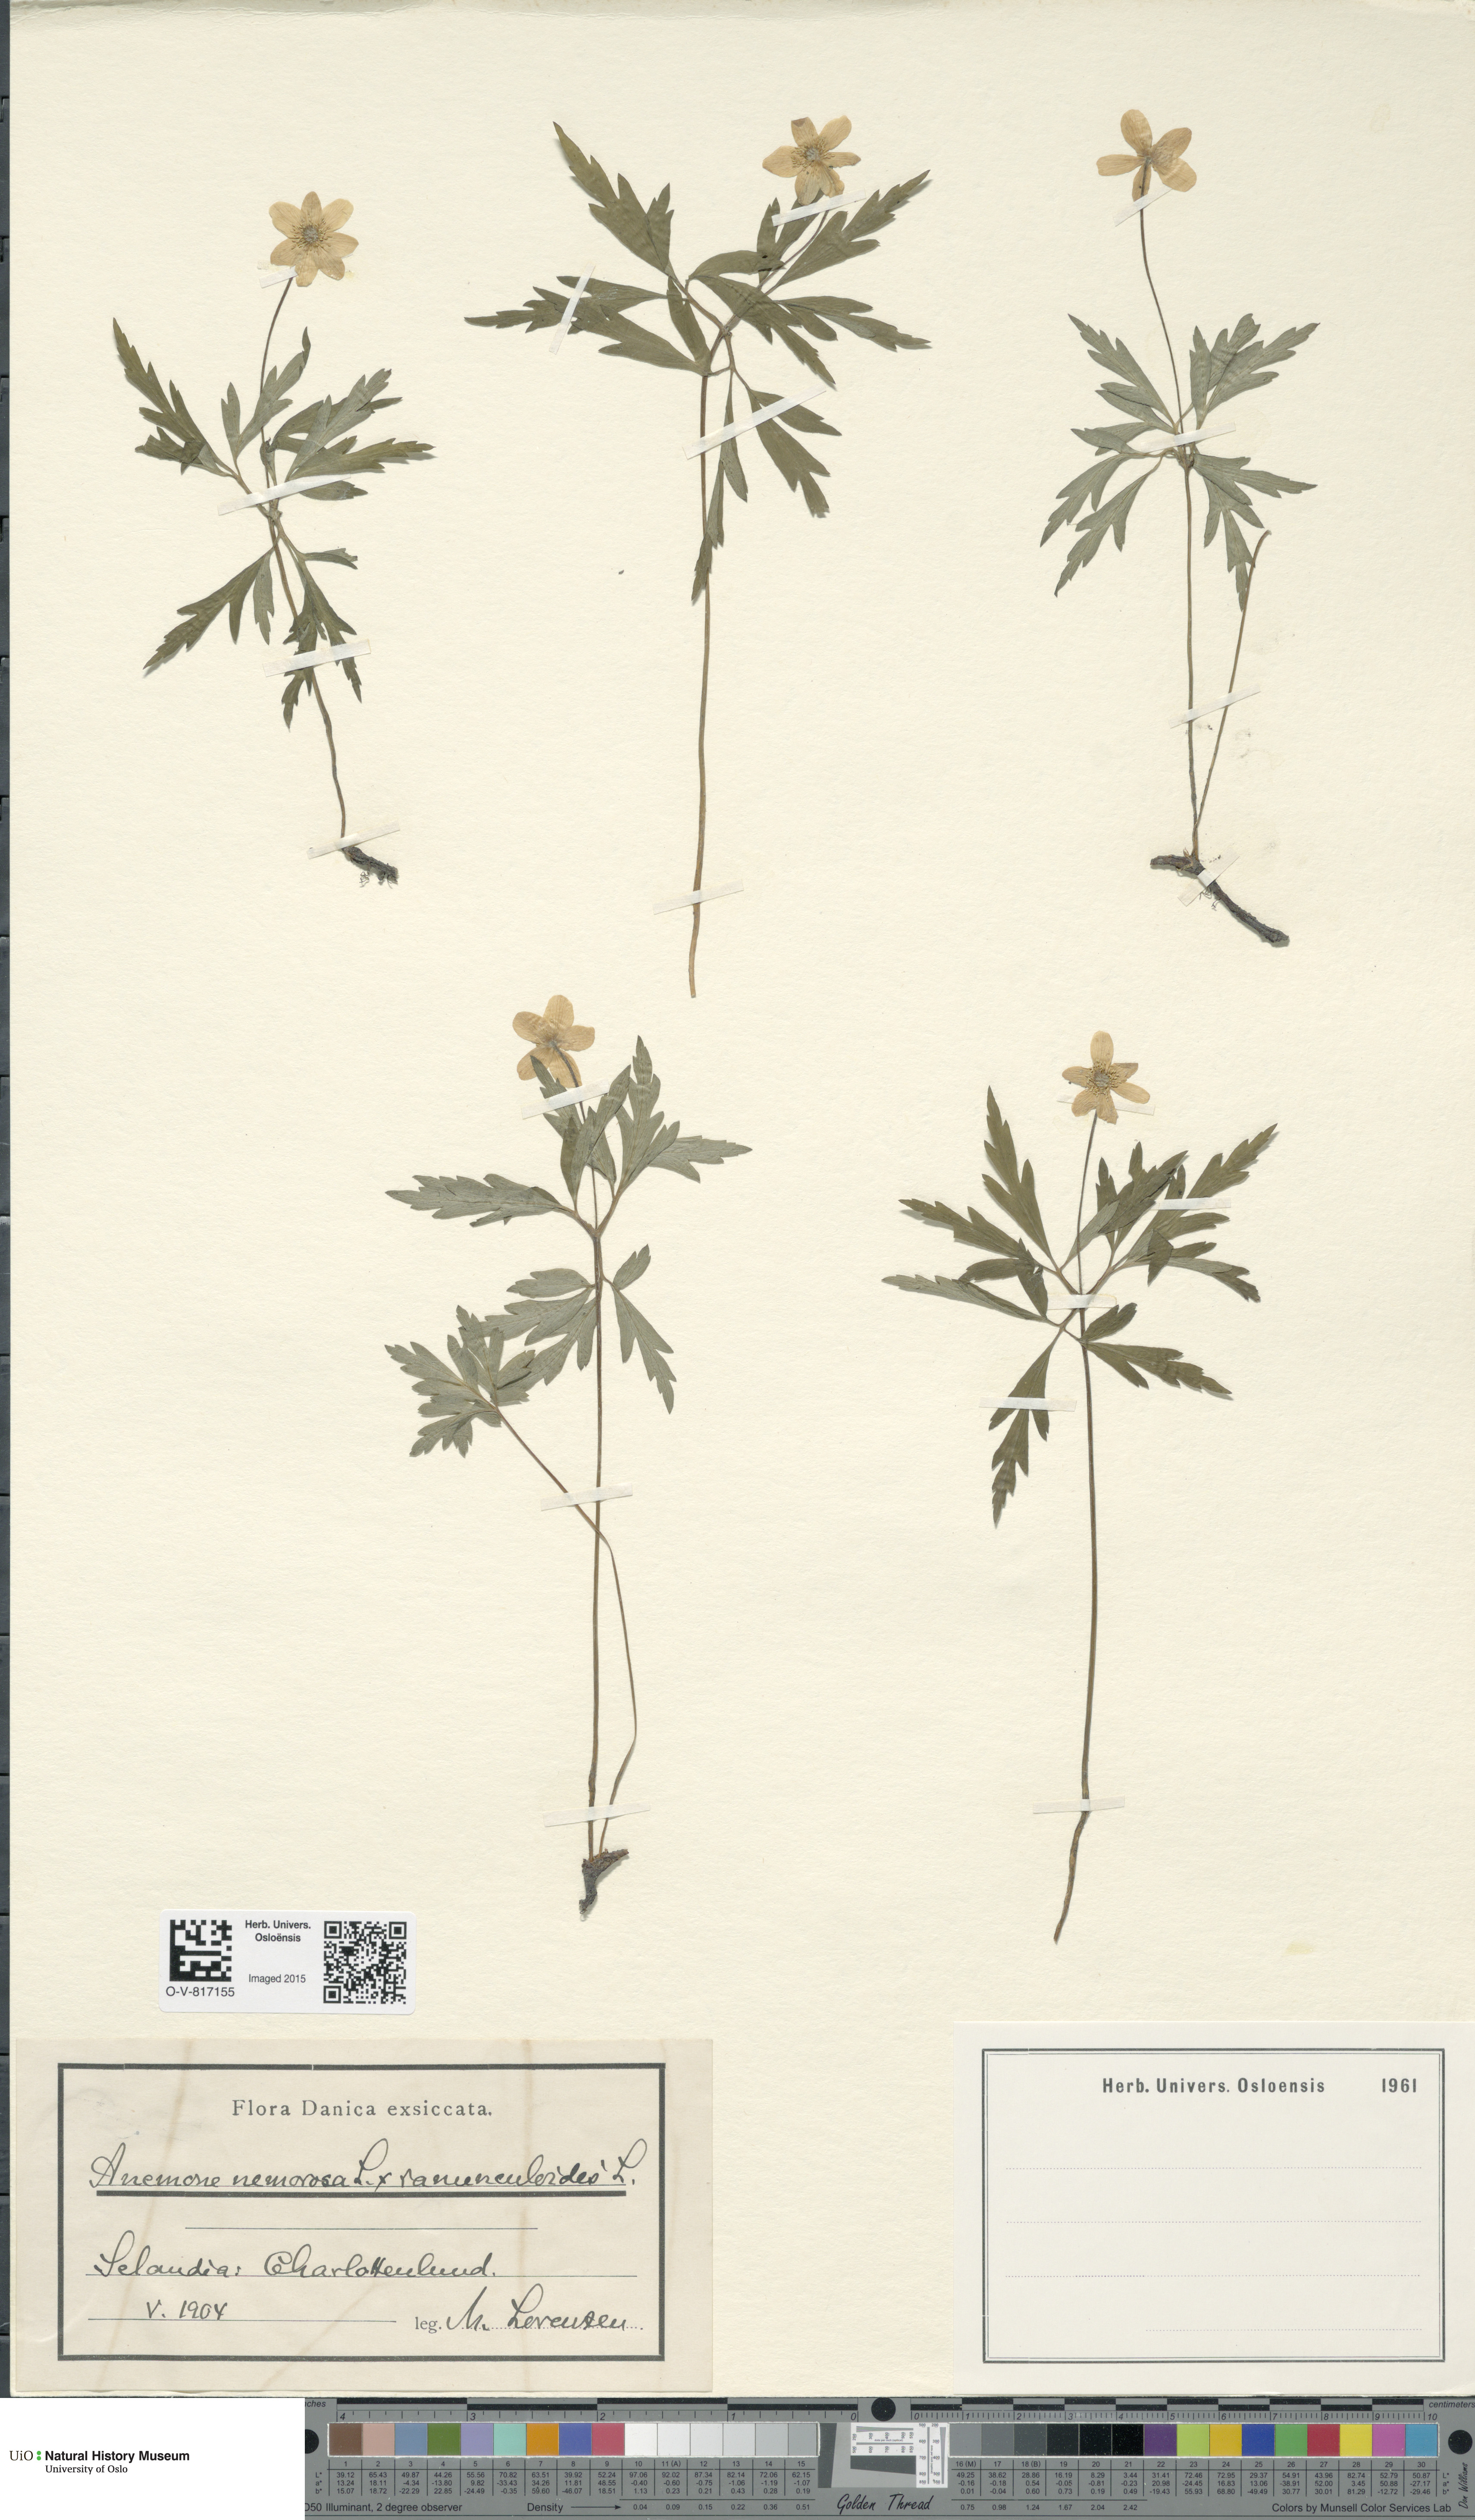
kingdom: Plantae
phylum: Tracheophyta
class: Magnoliopsida
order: Ranunculales
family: Ranunculaceae
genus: Anemone
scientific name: Anemone
